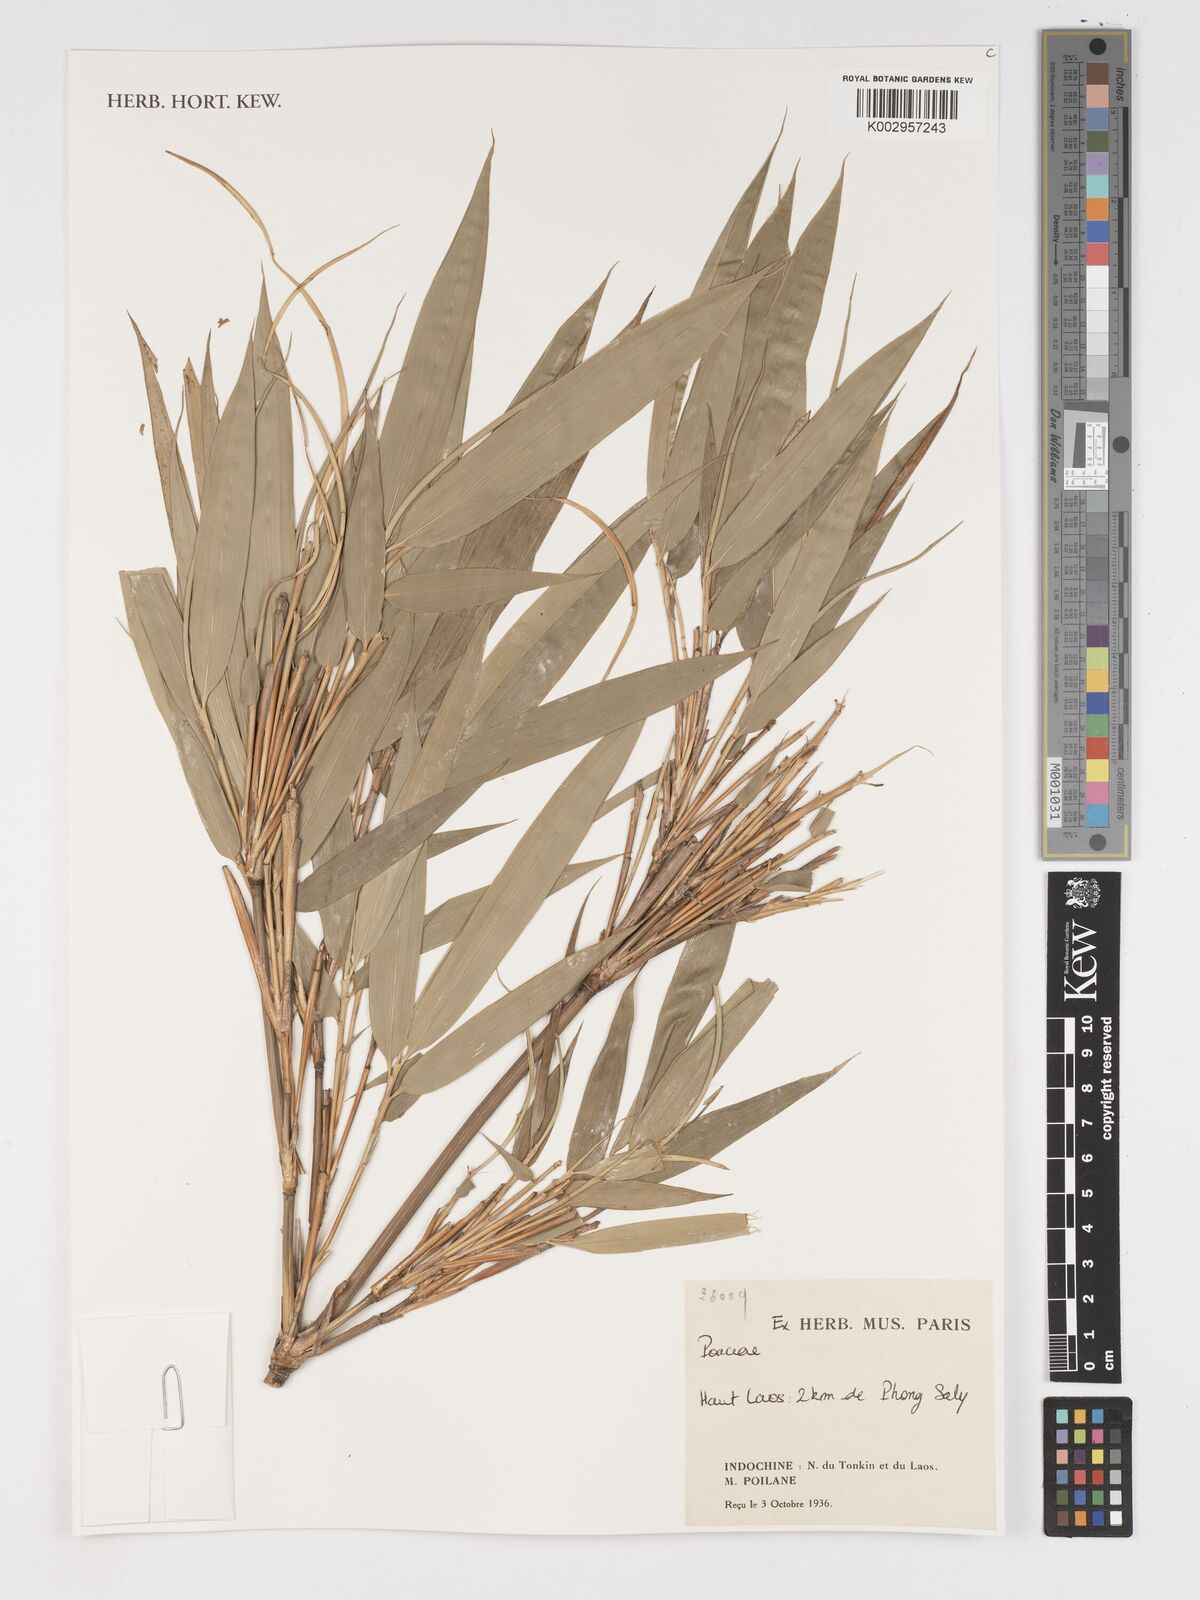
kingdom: Plantae
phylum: Tracheophyta
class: Liliopsida
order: Poales
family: Poaceae
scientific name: Poaceae
